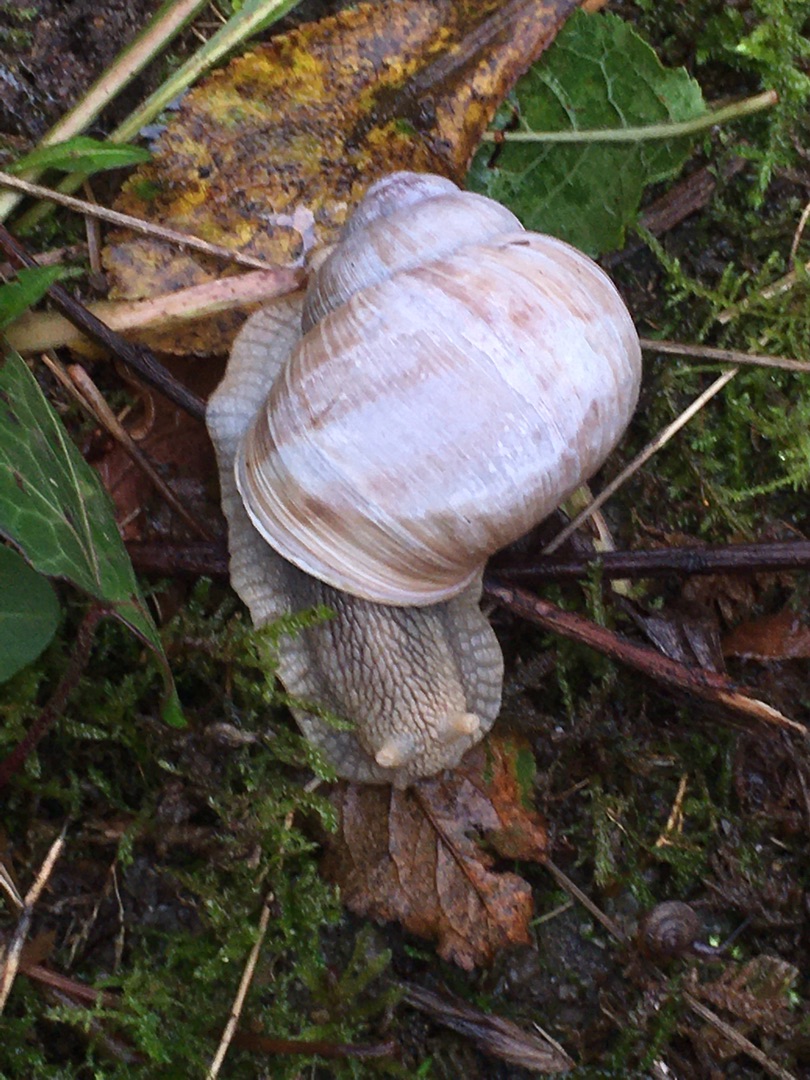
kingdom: Animalia
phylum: Mollusca
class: Gastropoda
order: Stylommatophora
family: Helicidae
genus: Helix
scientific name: Helix pomatia
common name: Vinbjergsnegl
